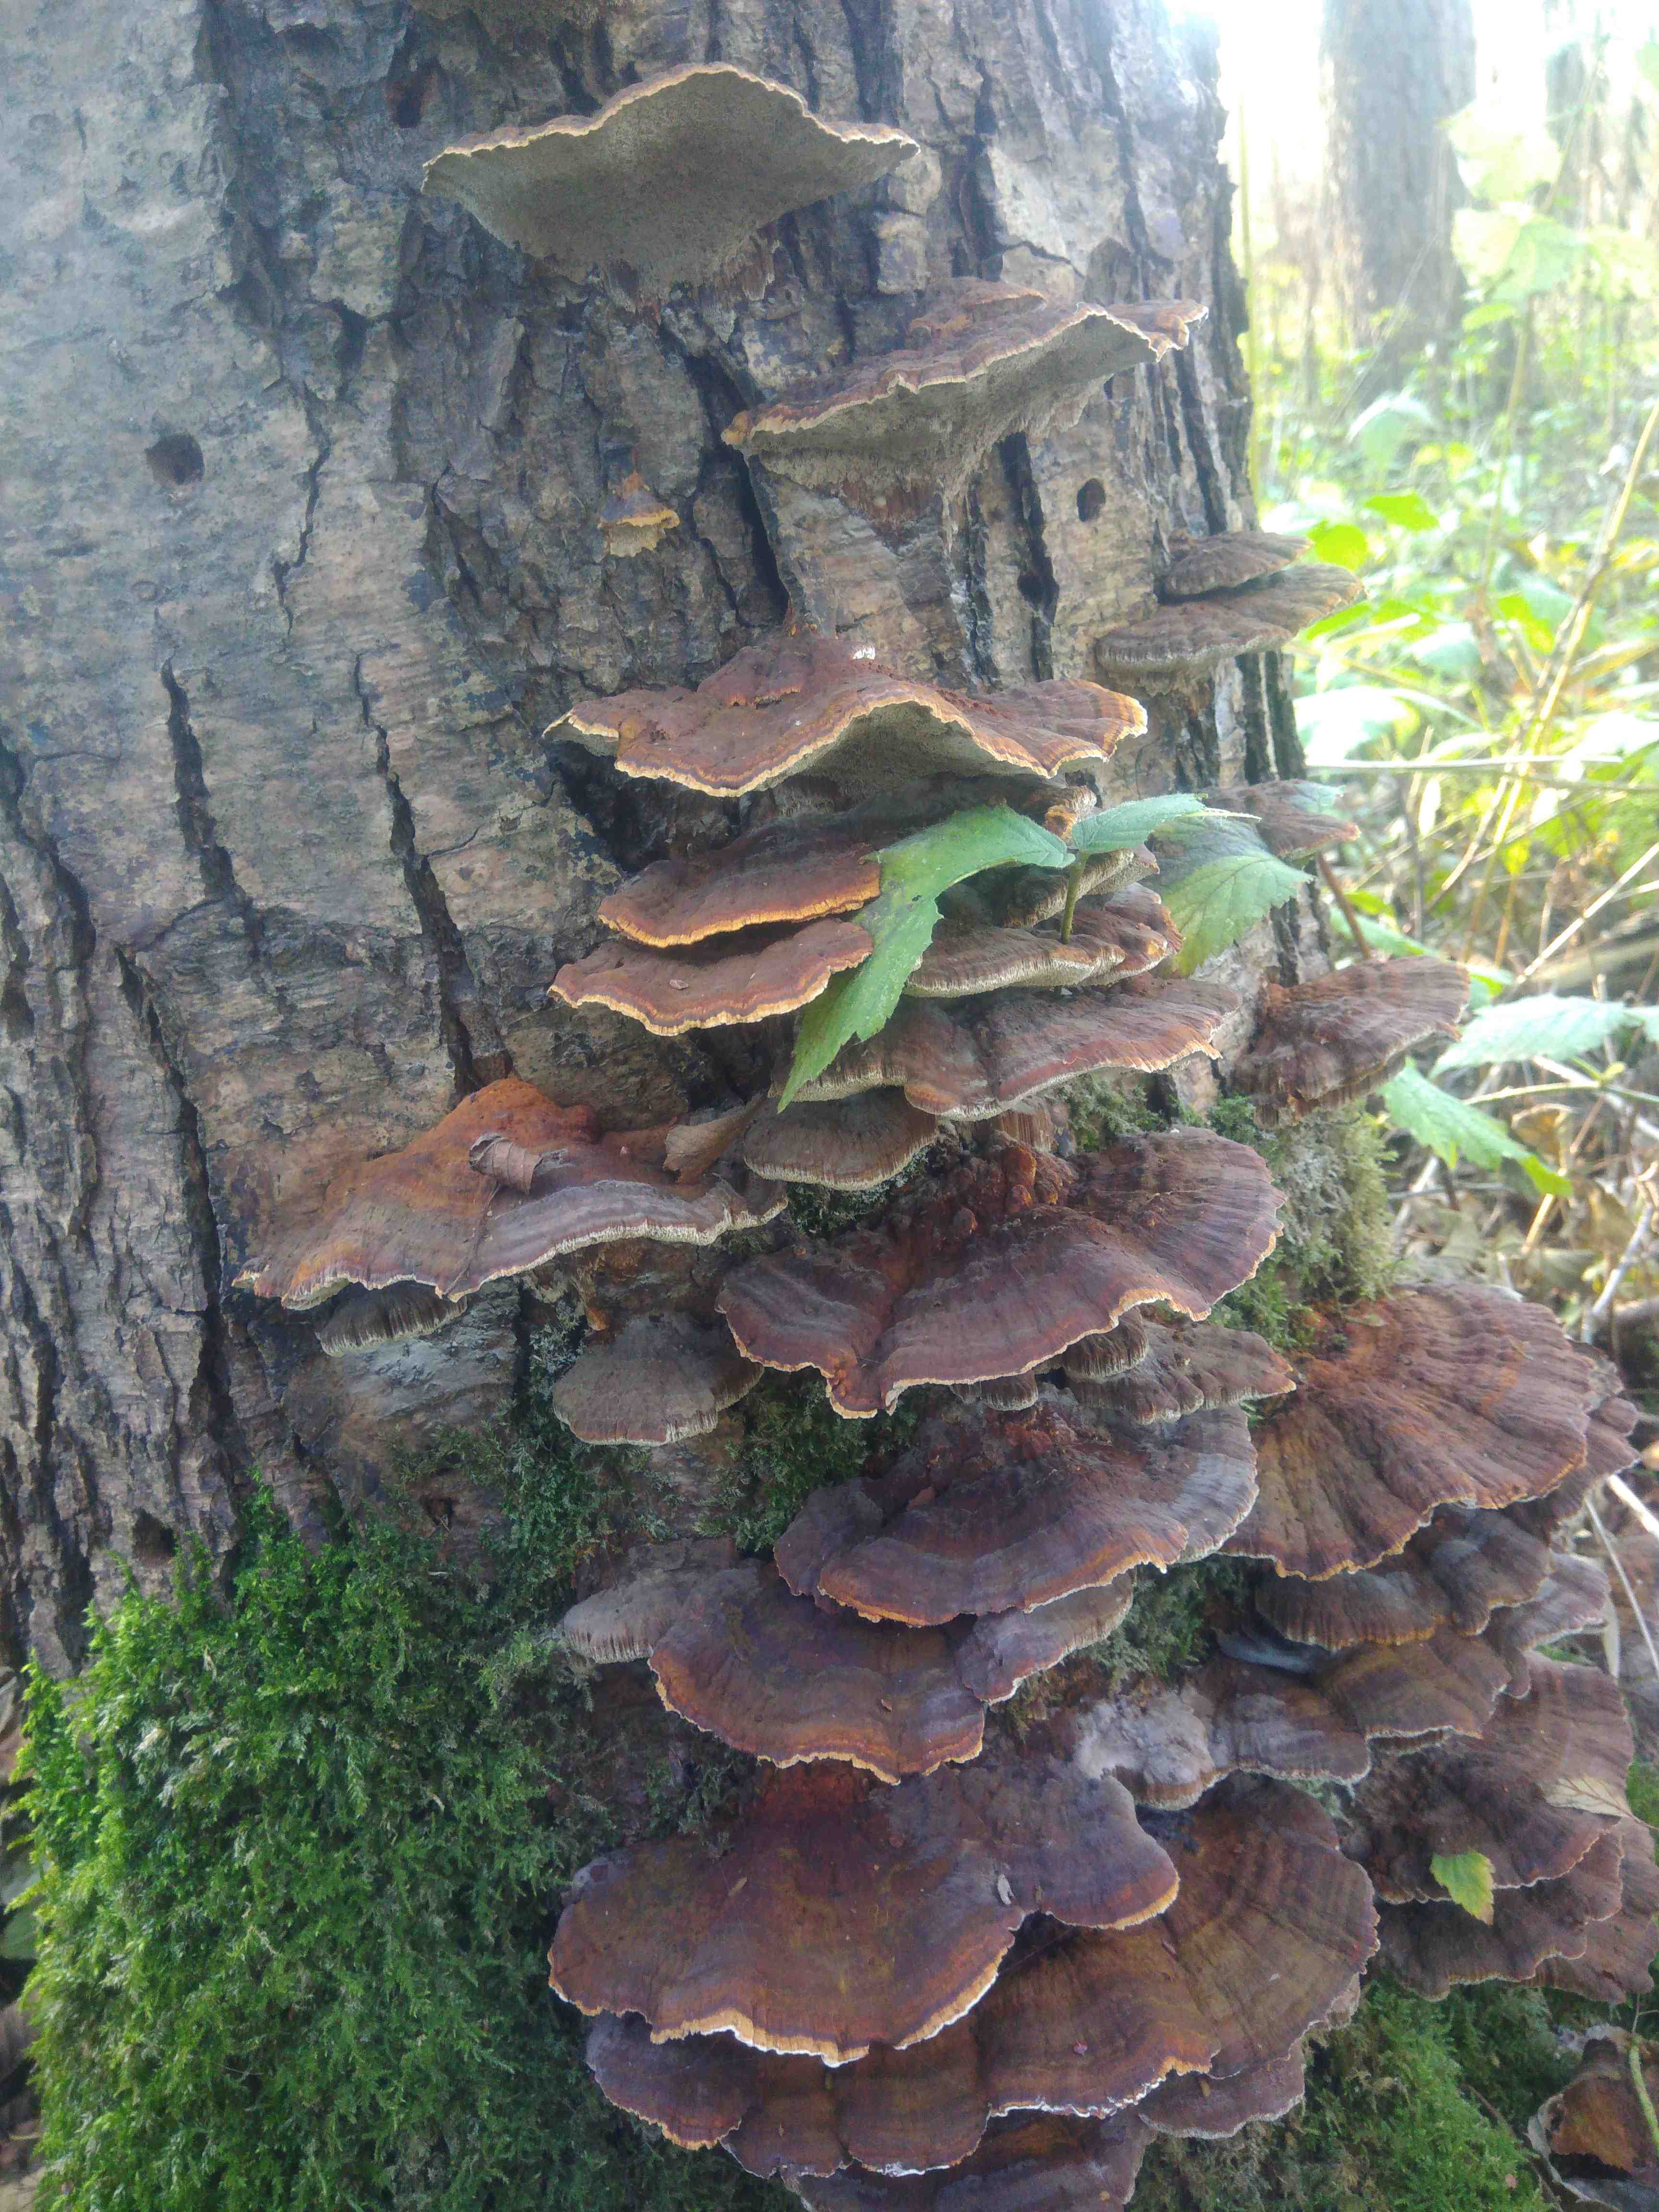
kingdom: Fungi
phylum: Basidiomycota
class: Agaricomycetes
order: Hymenochaetales
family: Hymenochaetaceae
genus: Xanthoporia
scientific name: Xanthoporia radiata
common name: elle-spejlporesvamp
